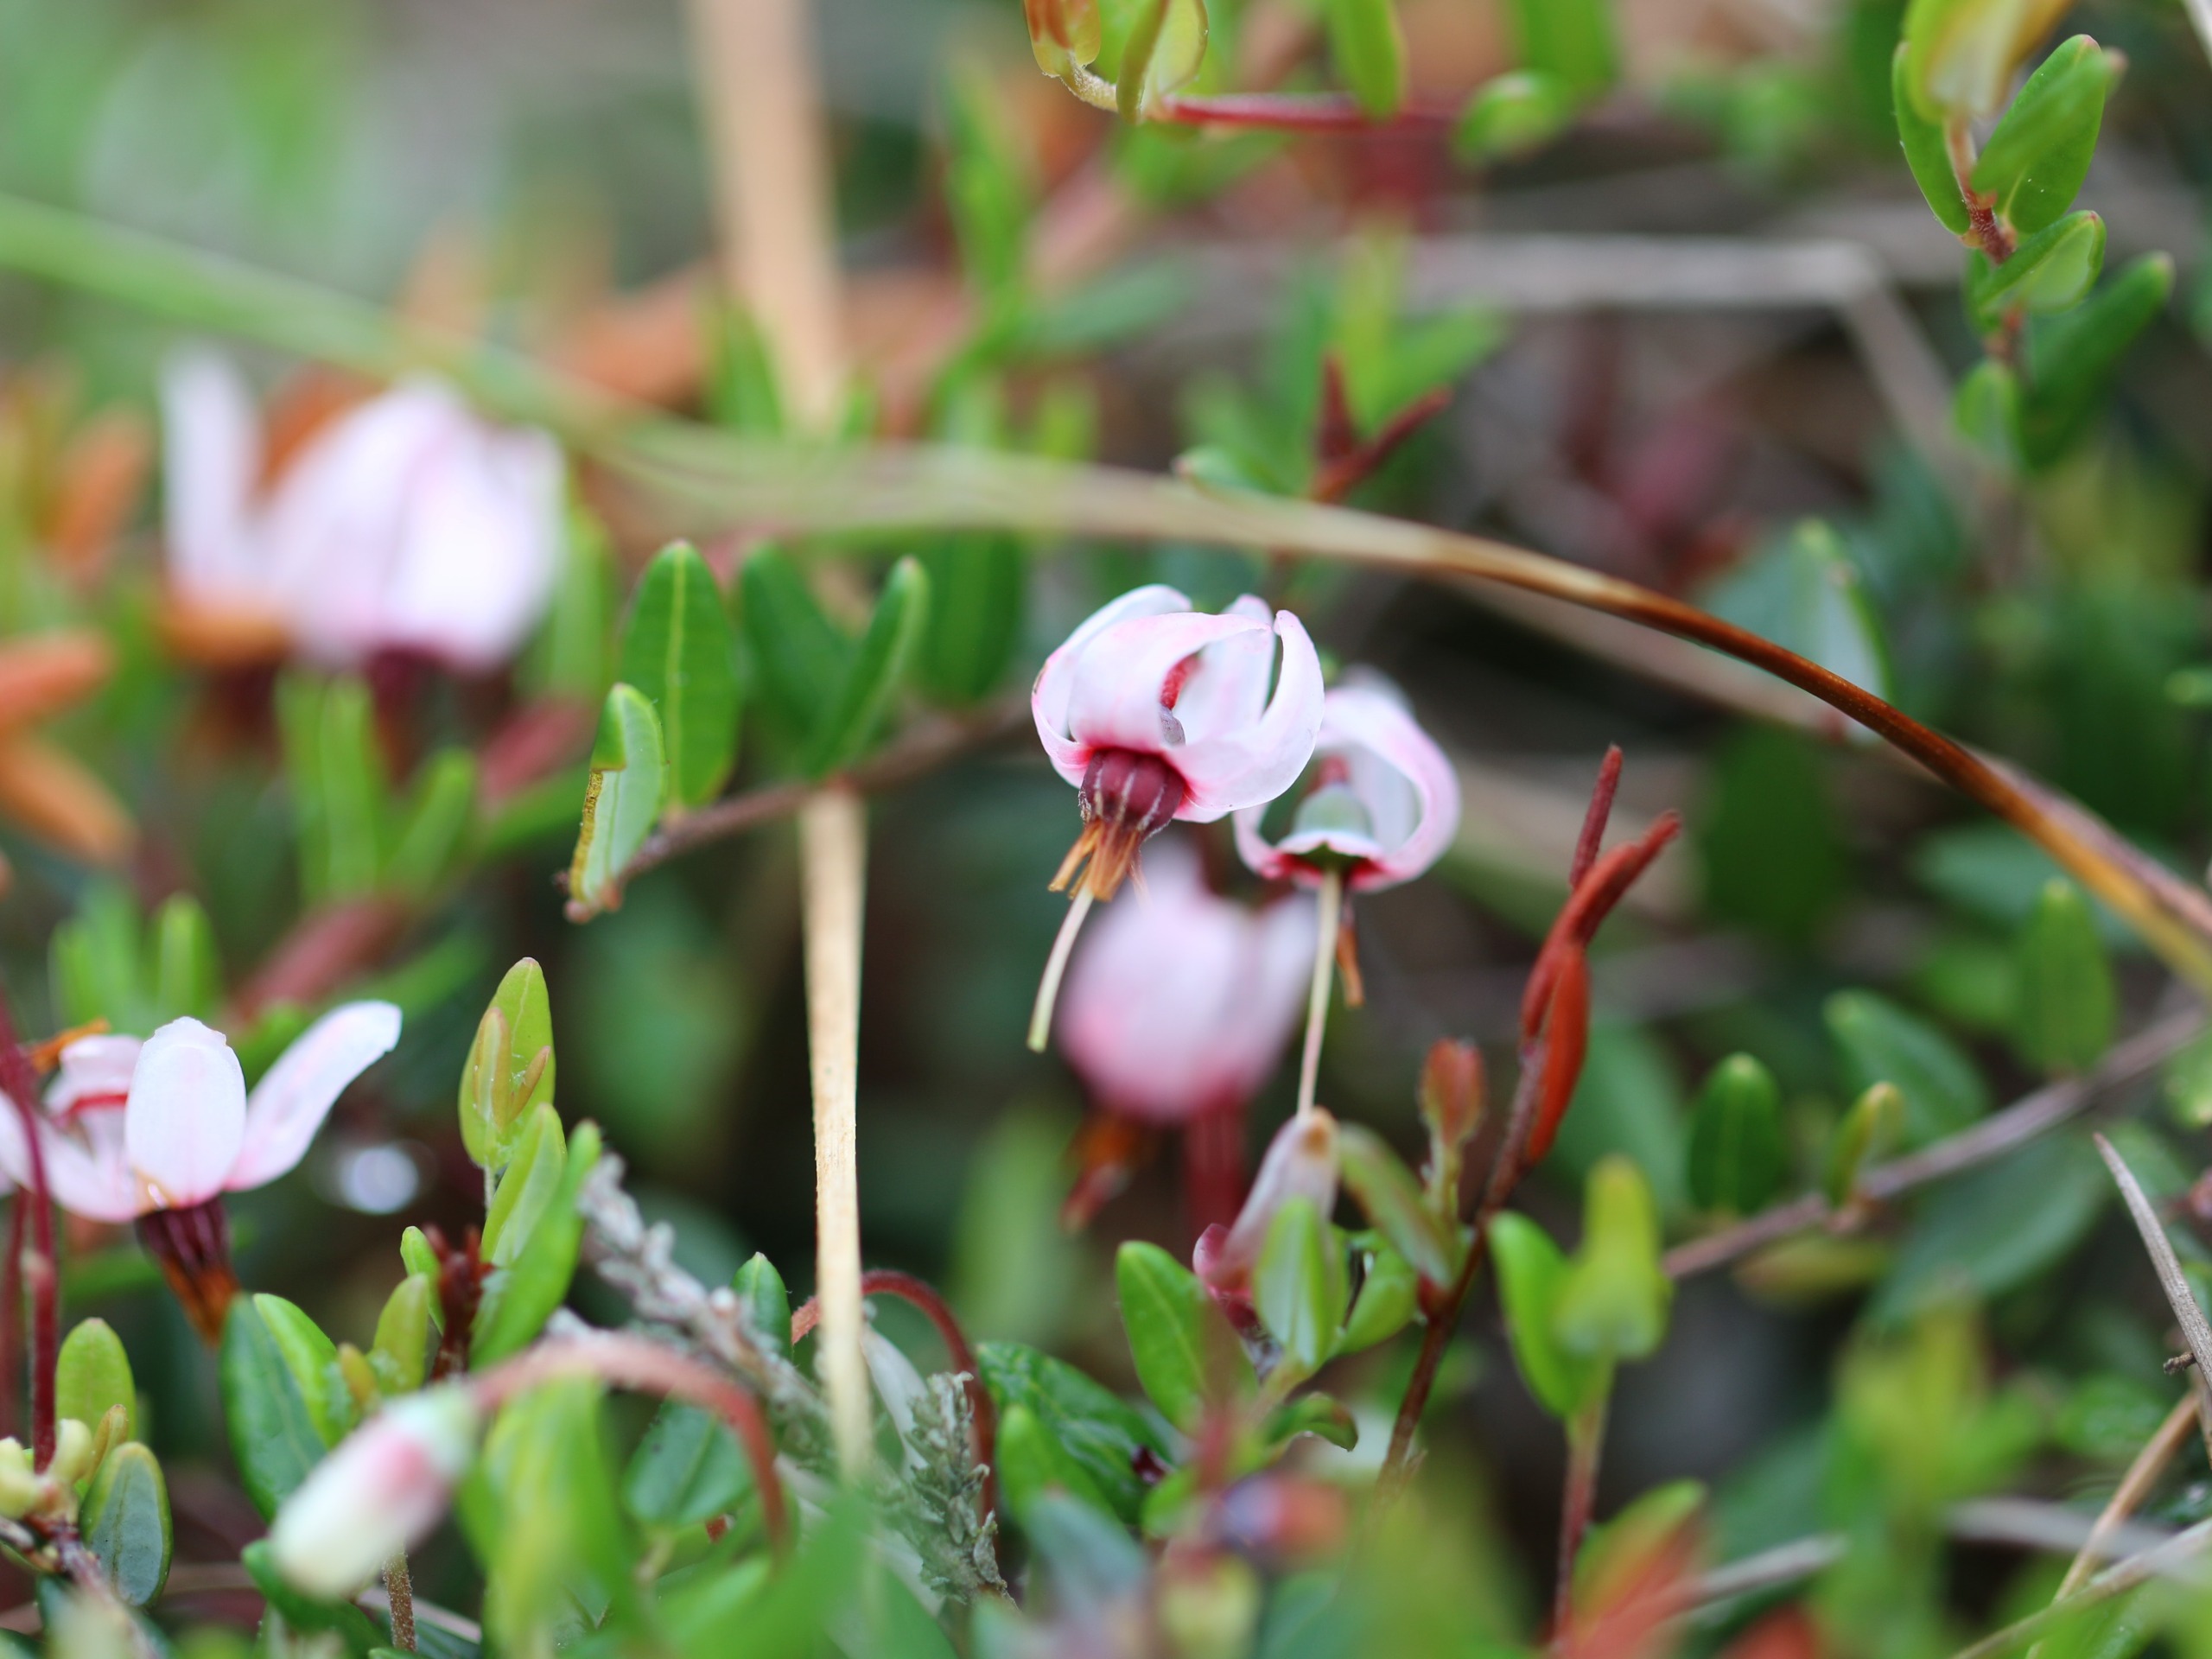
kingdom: Plantae
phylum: Tracheophyta
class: Magnoliopsida
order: Ericales
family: Ericaceae
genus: Vaccinium
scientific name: Vaccinium oxycoccos
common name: Tranebær
